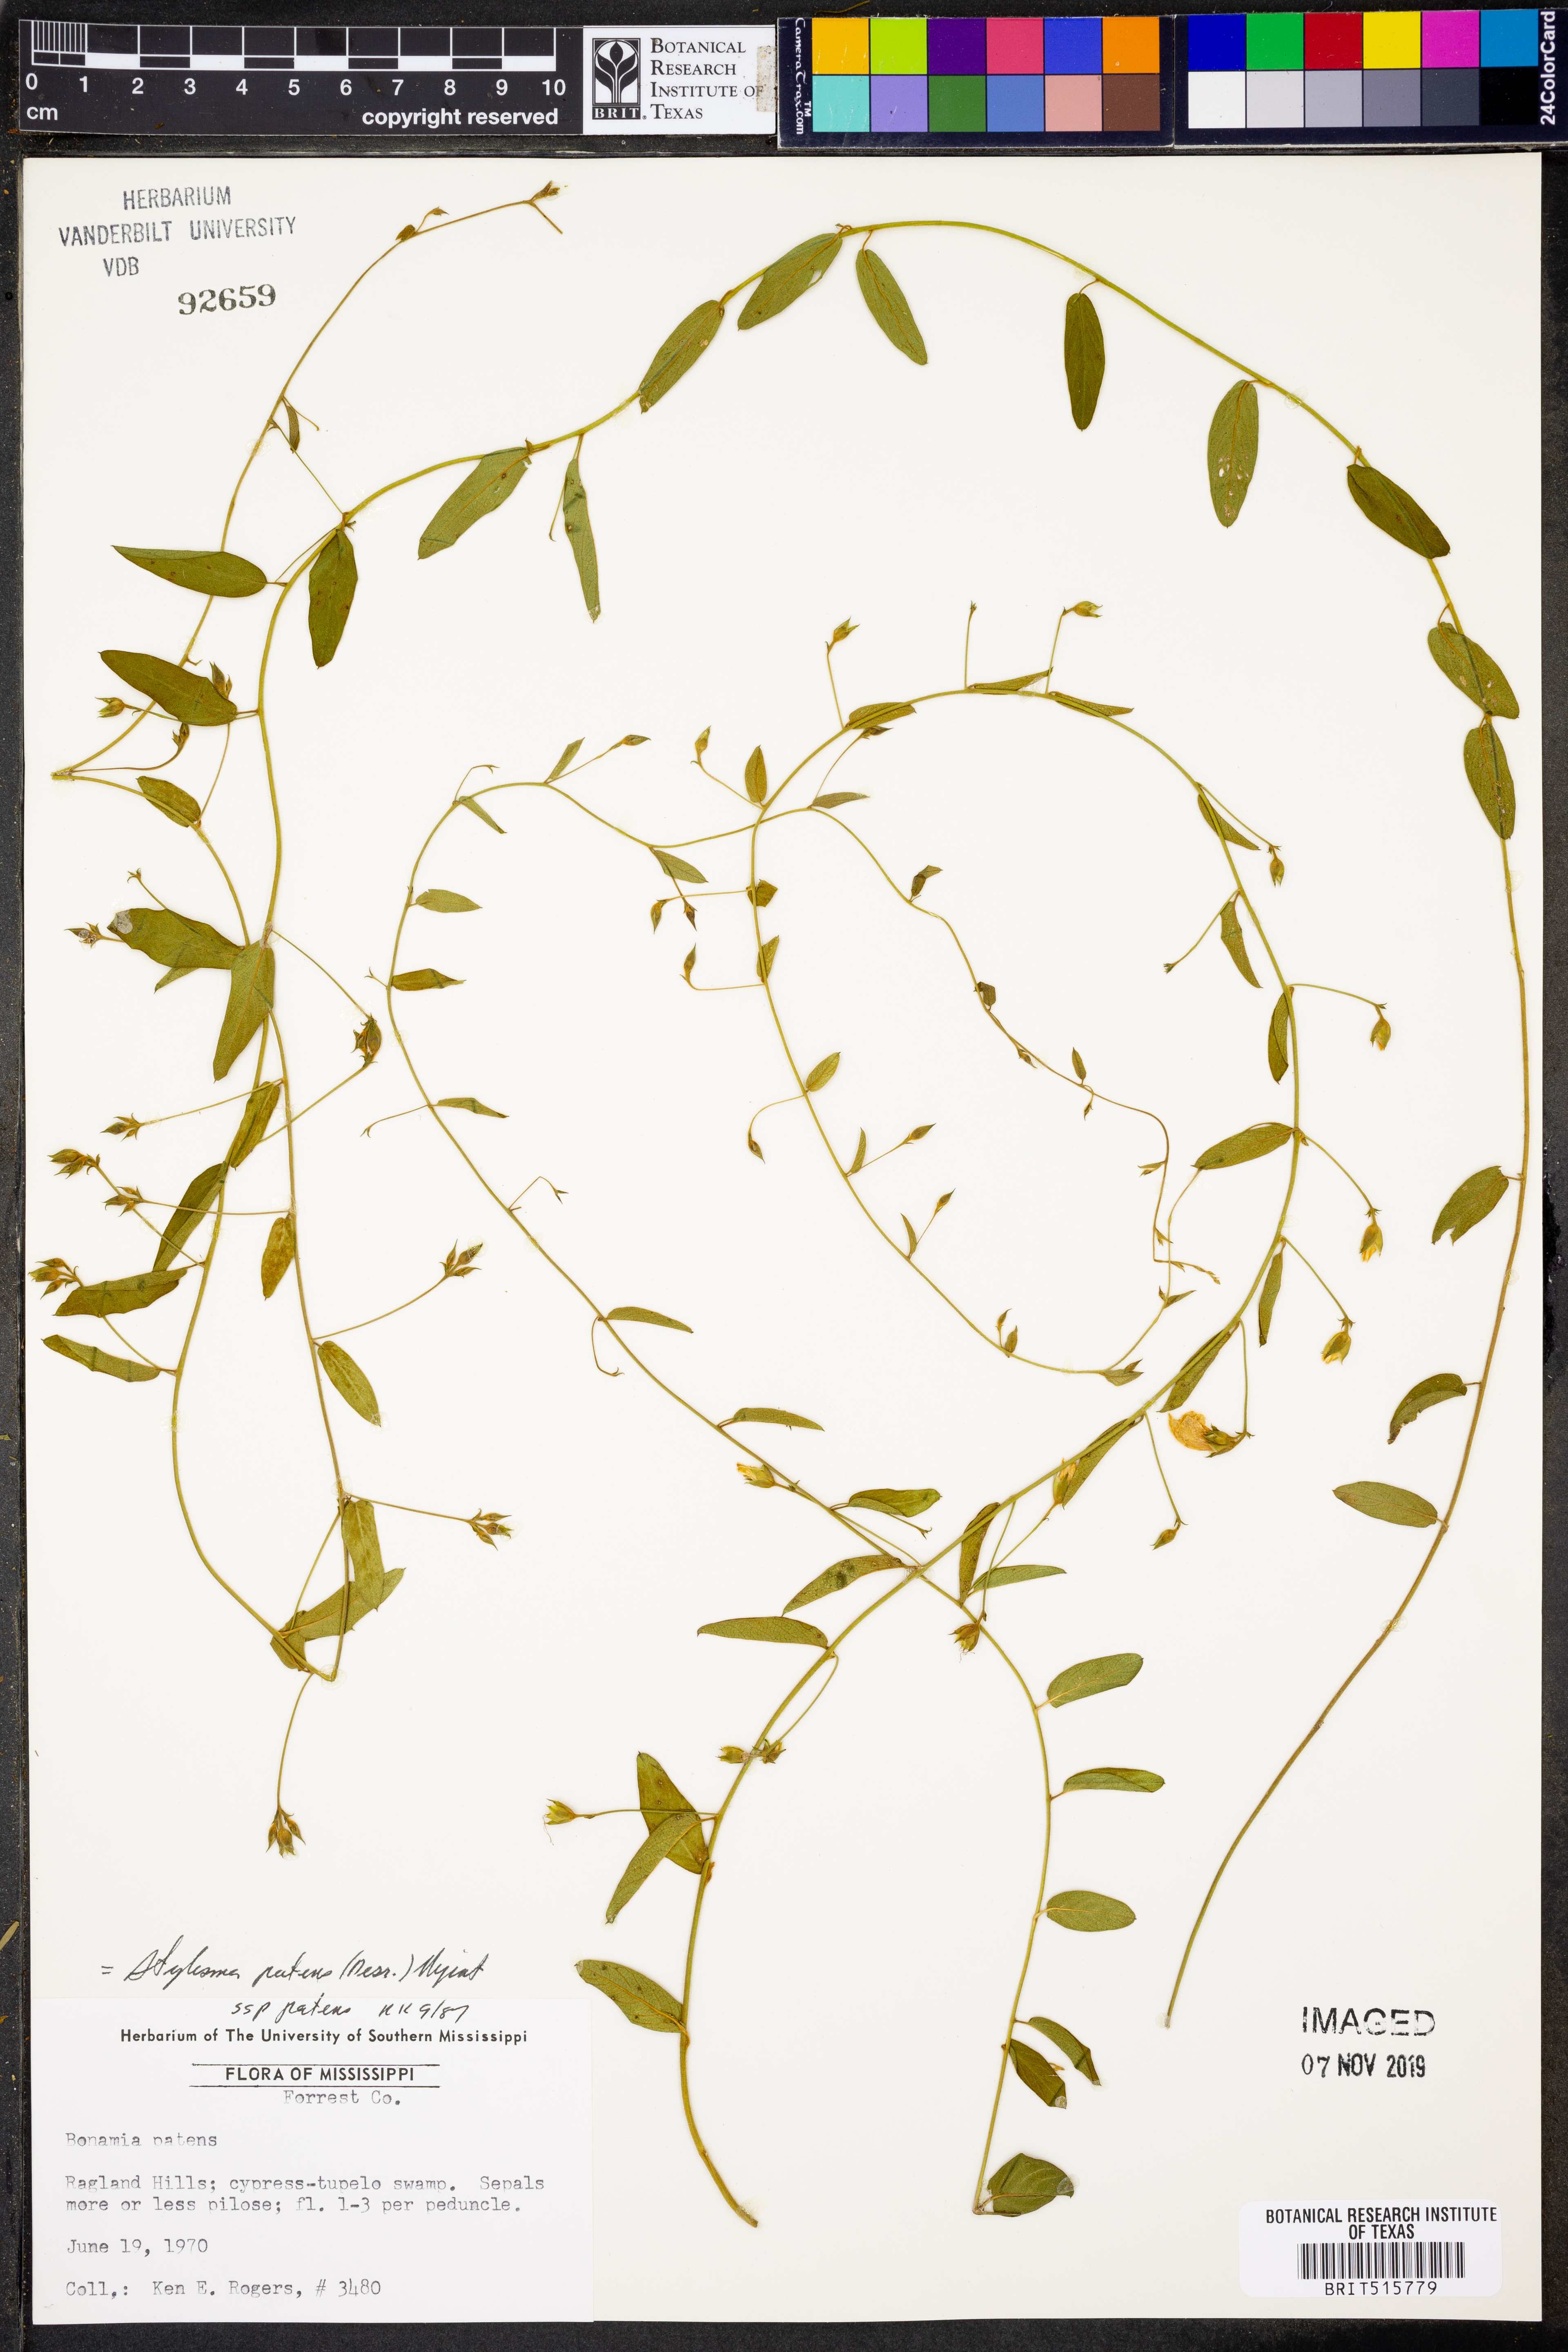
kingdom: Plantae
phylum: Tracheophyta
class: Magnoliopsida
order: Solanales
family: Convolvulaceae
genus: Stylisma
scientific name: Stylisma patens
